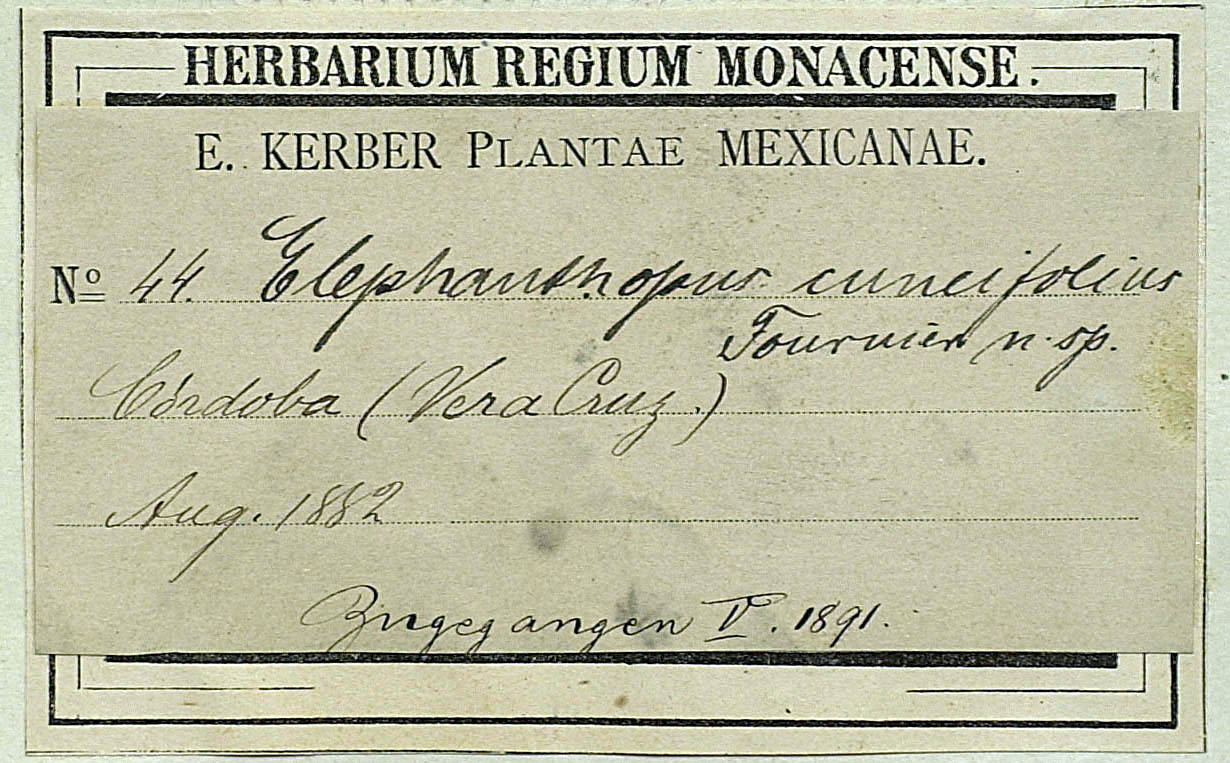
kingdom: Plantae
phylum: Tracheophyta
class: Magnoliopsida
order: Asterales
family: Asteraceae
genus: Melanthera
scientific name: Melanthera nivea
